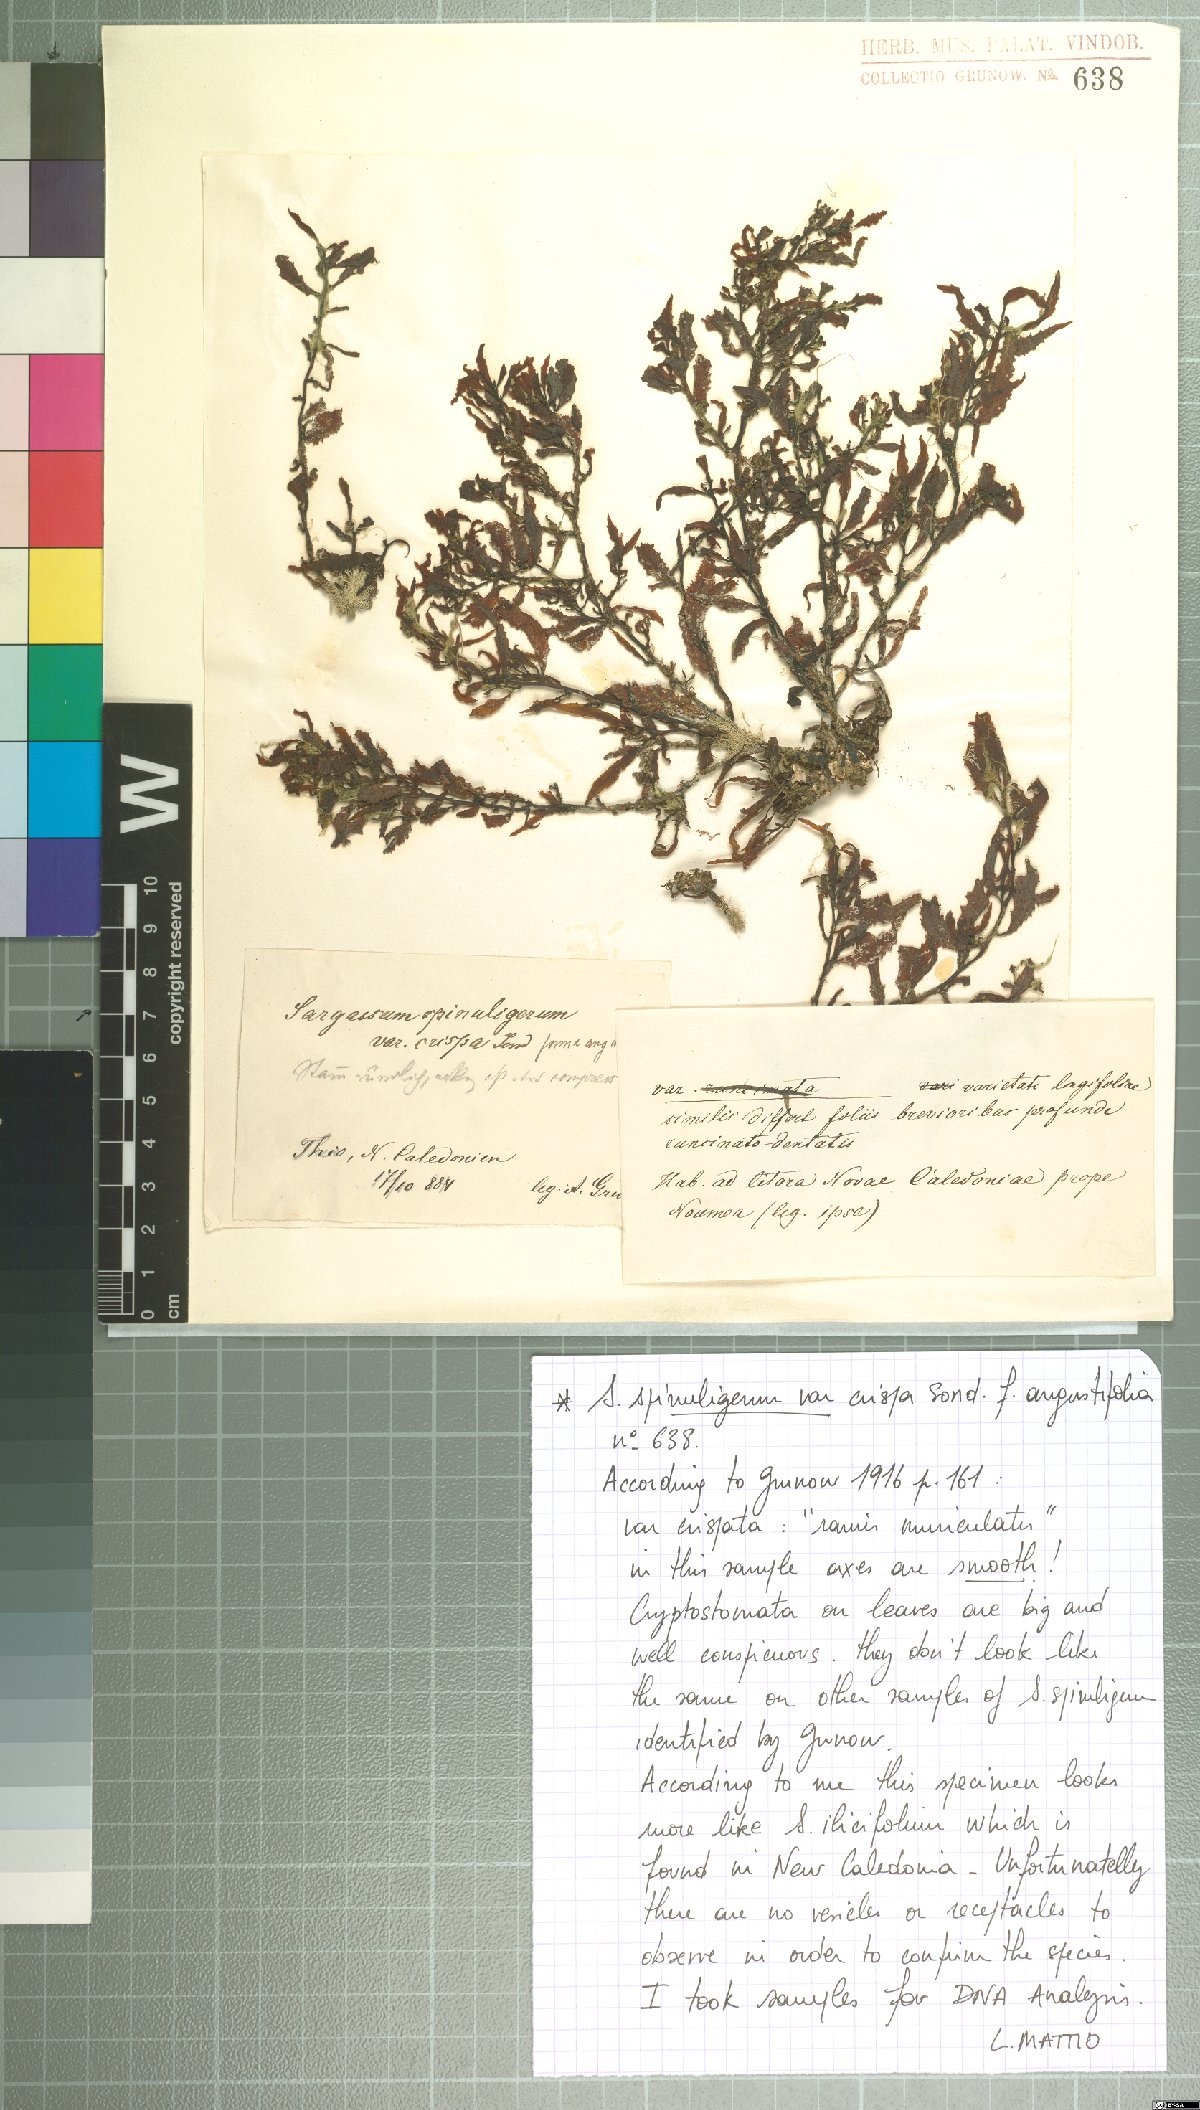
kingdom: Chromista
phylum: Ochrophyta
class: Phaeophyceae
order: Fucales
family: Sargassaceae
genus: Sargassum
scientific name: Sargassum
